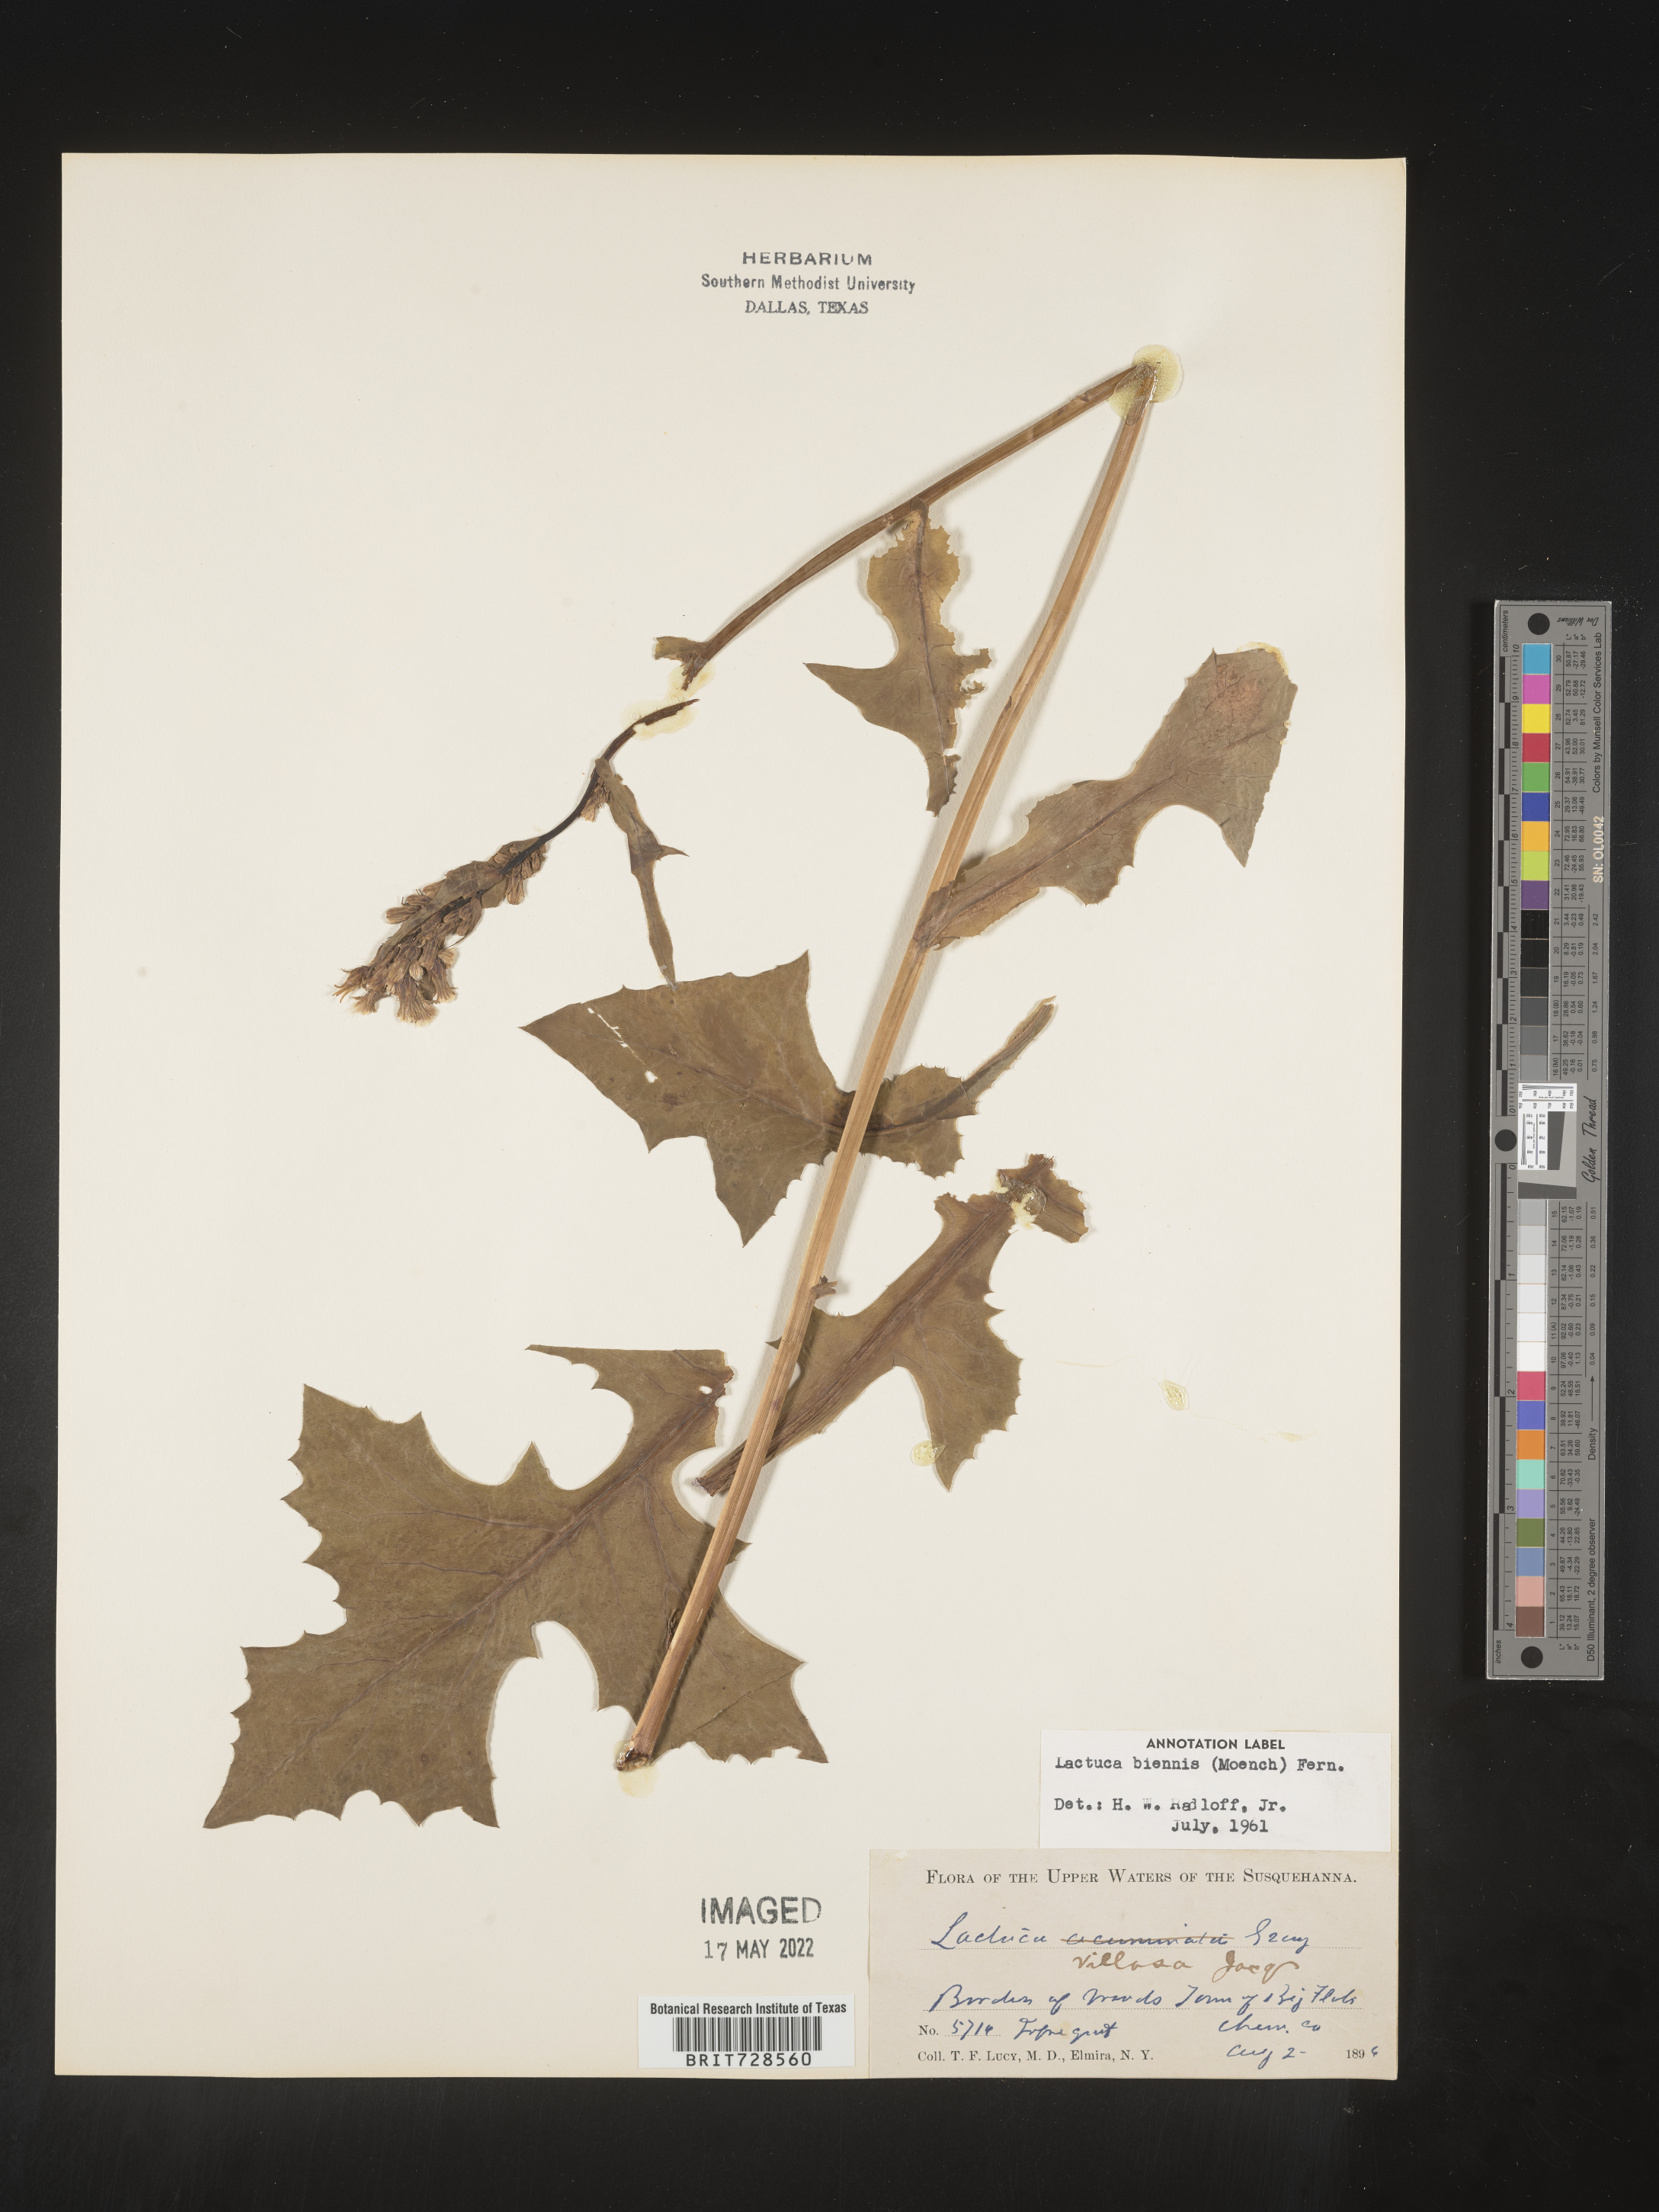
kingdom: Plantae
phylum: Tracheophyta
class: Magnoliopsida
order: Asterales
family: Asteraceae
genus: Lactuca
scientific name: Lactuca biennis
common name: Blue wood lettuce
